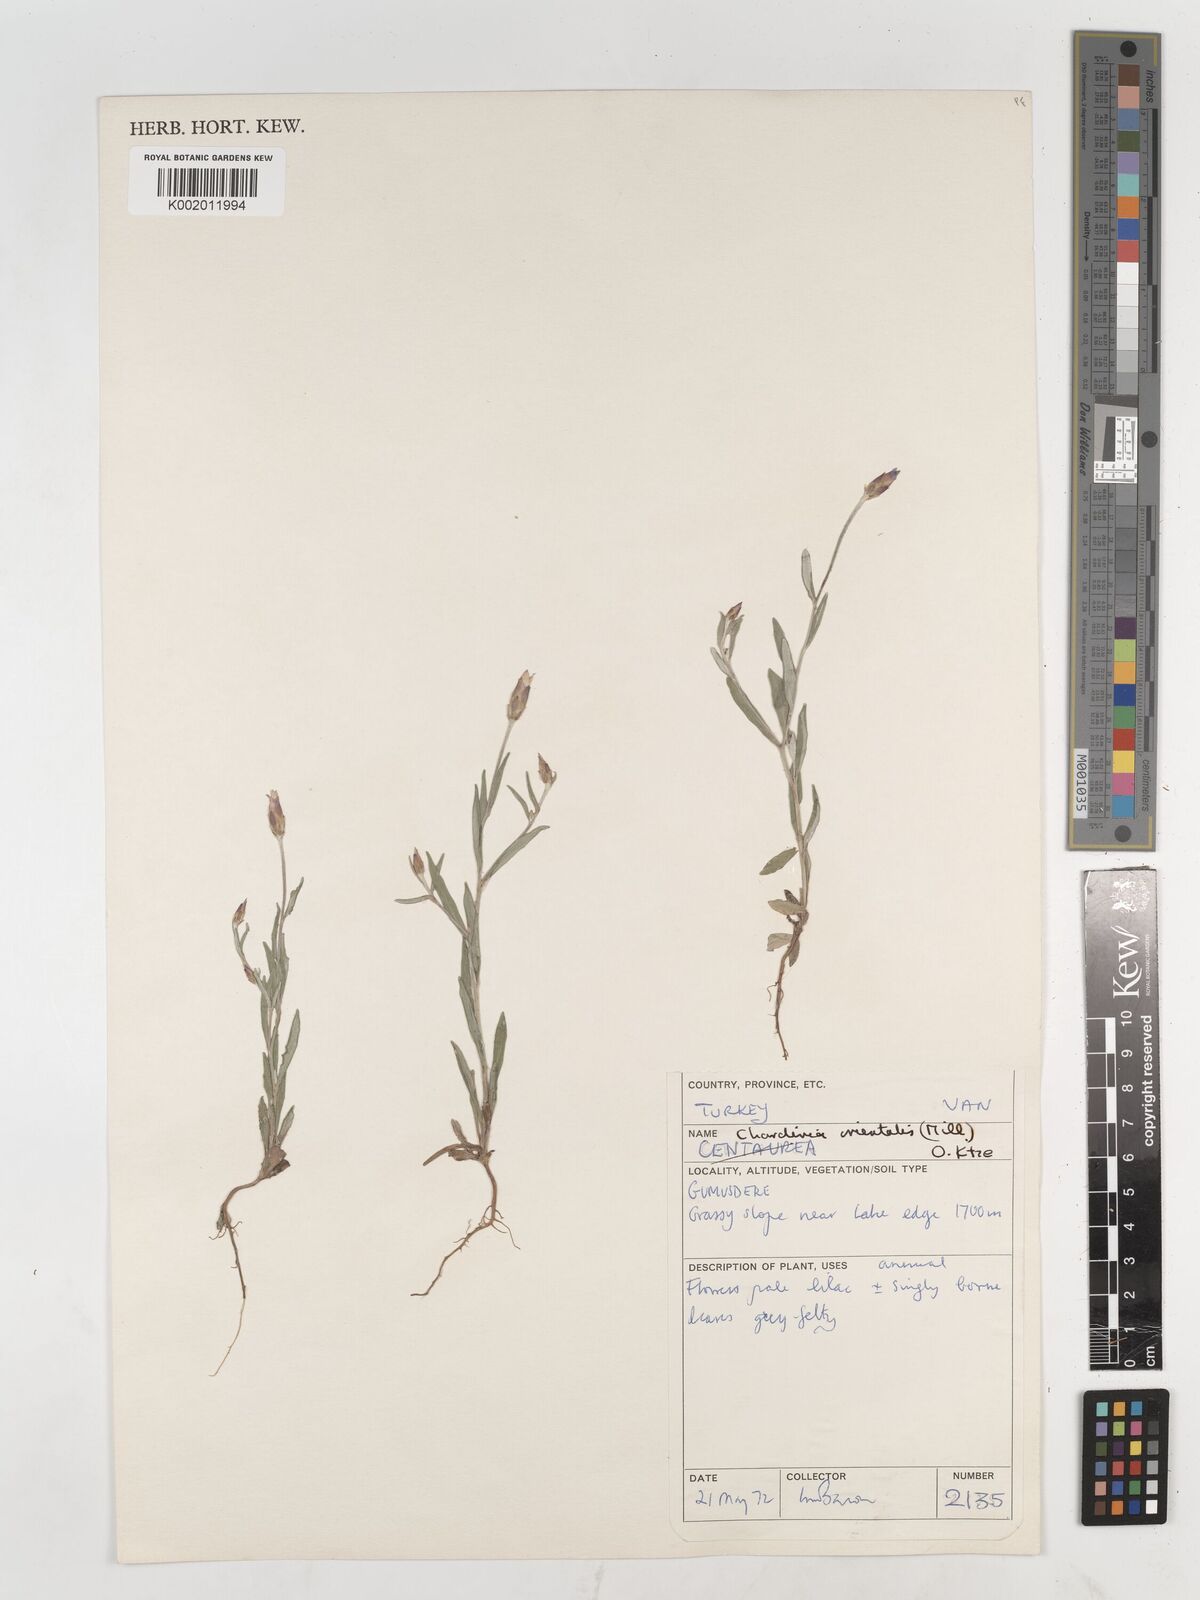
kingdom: Plantae
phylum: Tracheophyta
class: Magnoliopsida
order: Asterales
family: Asteraceae
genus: Chardinia
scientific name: Chardinia orientalis
